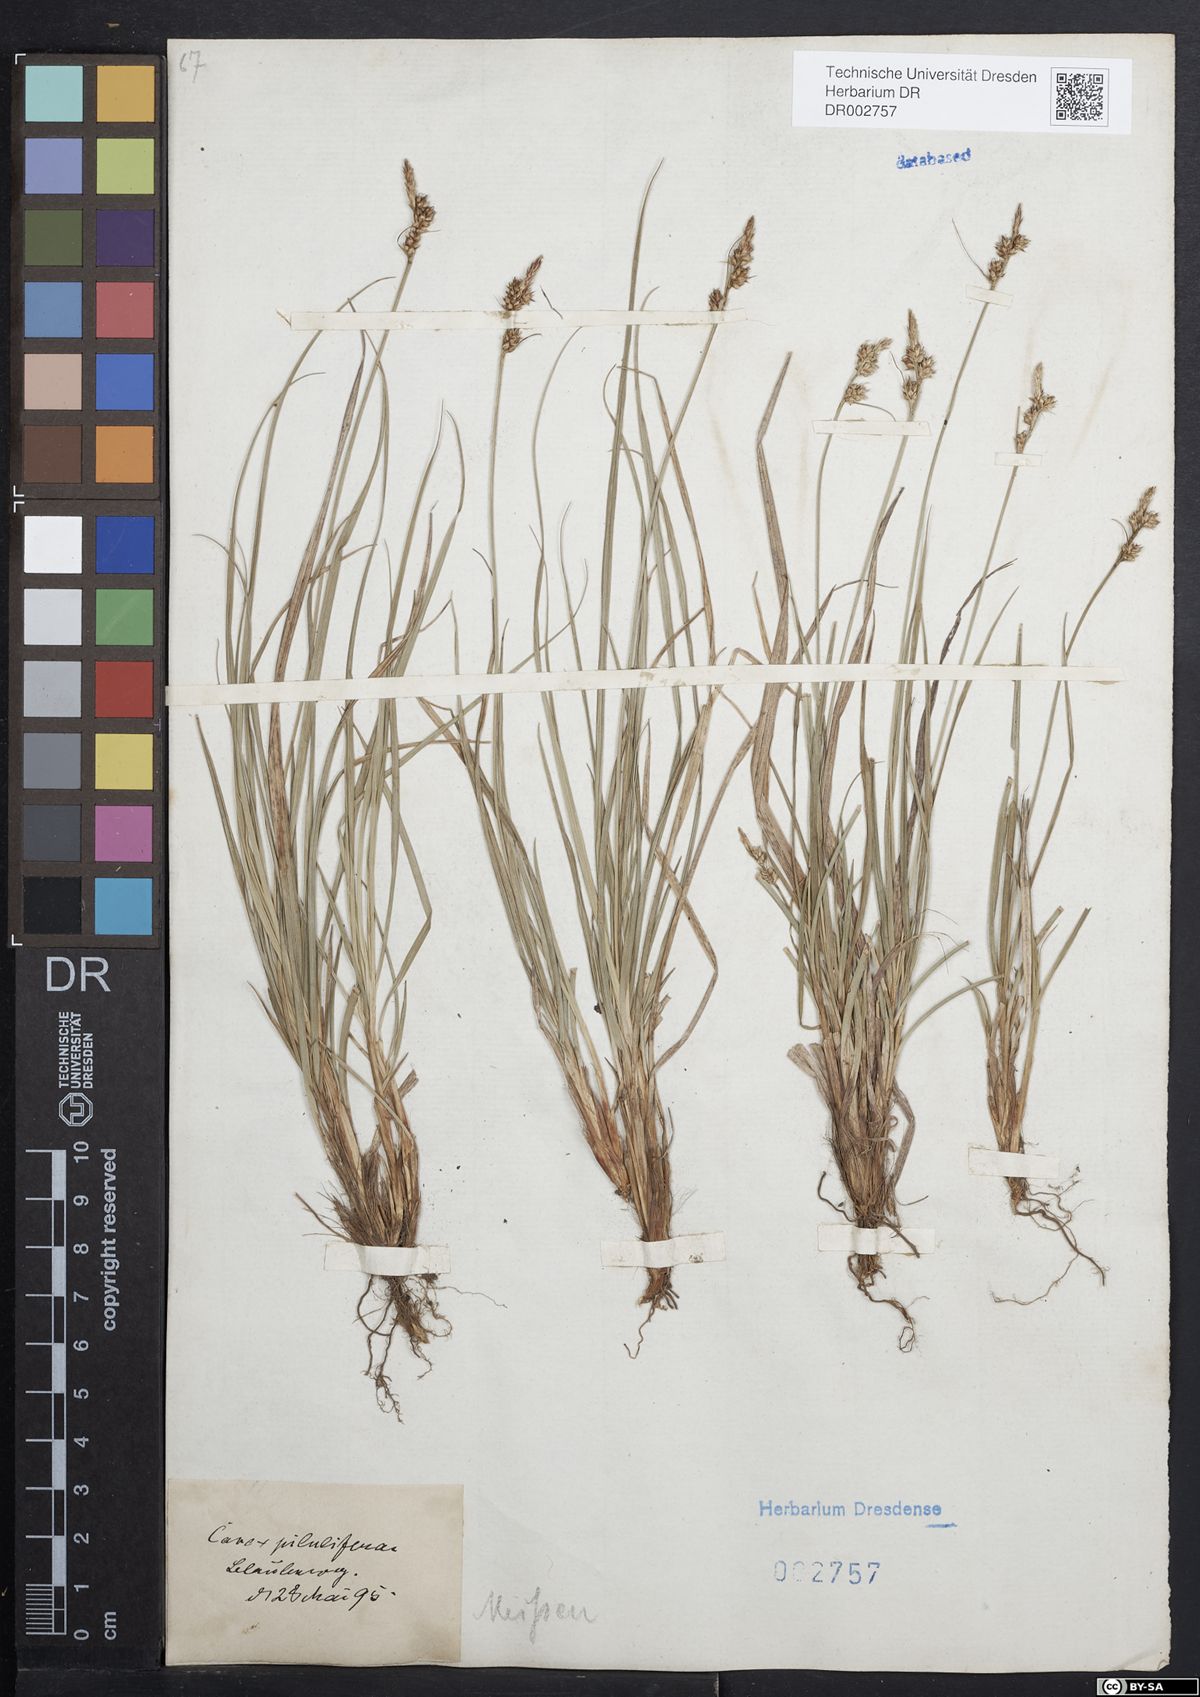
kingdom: Plantae
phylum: Tracheophyta
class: Liliopsida
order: Poales
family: Cyperaceae
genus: Carex
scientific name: Carex caryophyllea
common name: Spring sedge
